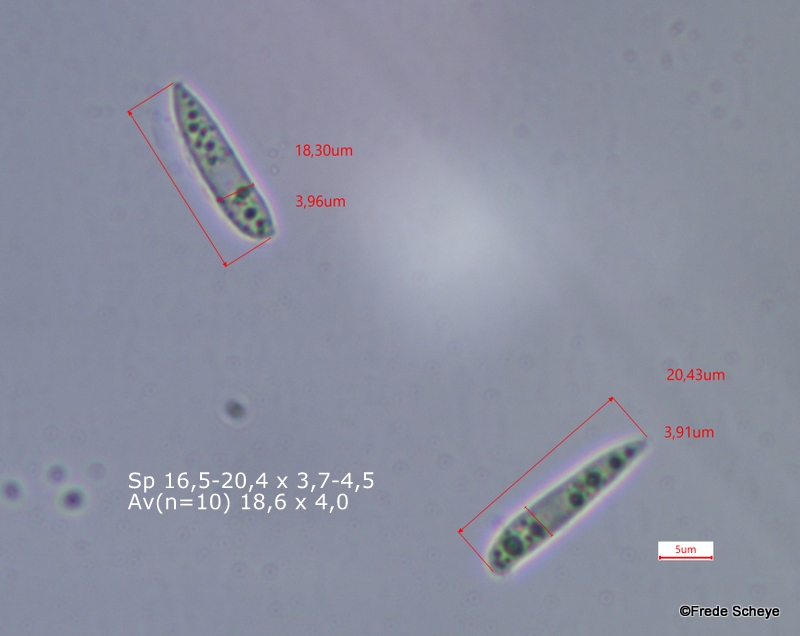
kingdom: Fungi
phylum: Ascomycota
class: Leotiomycetes
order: Helotiales
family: Helotiaceae
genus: Hymenoscyphus
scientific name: Hymenoscyphus fructigenus
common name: frugt-stilkskive
